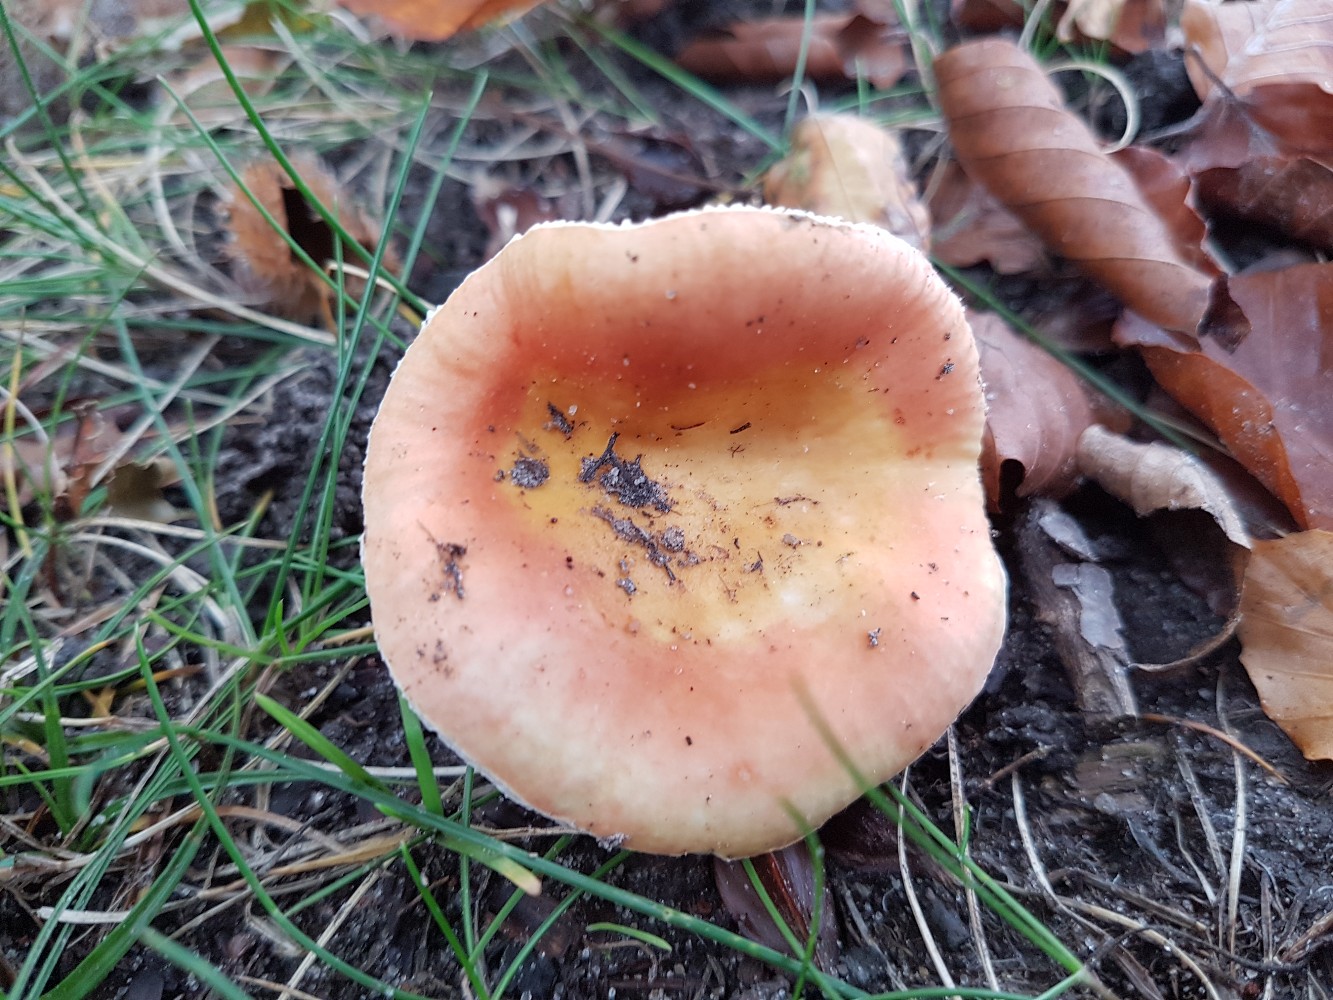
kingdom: Fungi
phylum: Basidiomycota
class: Agaricomycetes
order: Russulales
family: Russulaceae
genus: Russula
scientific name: Russula risigallina
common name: abrikos-skørhat
